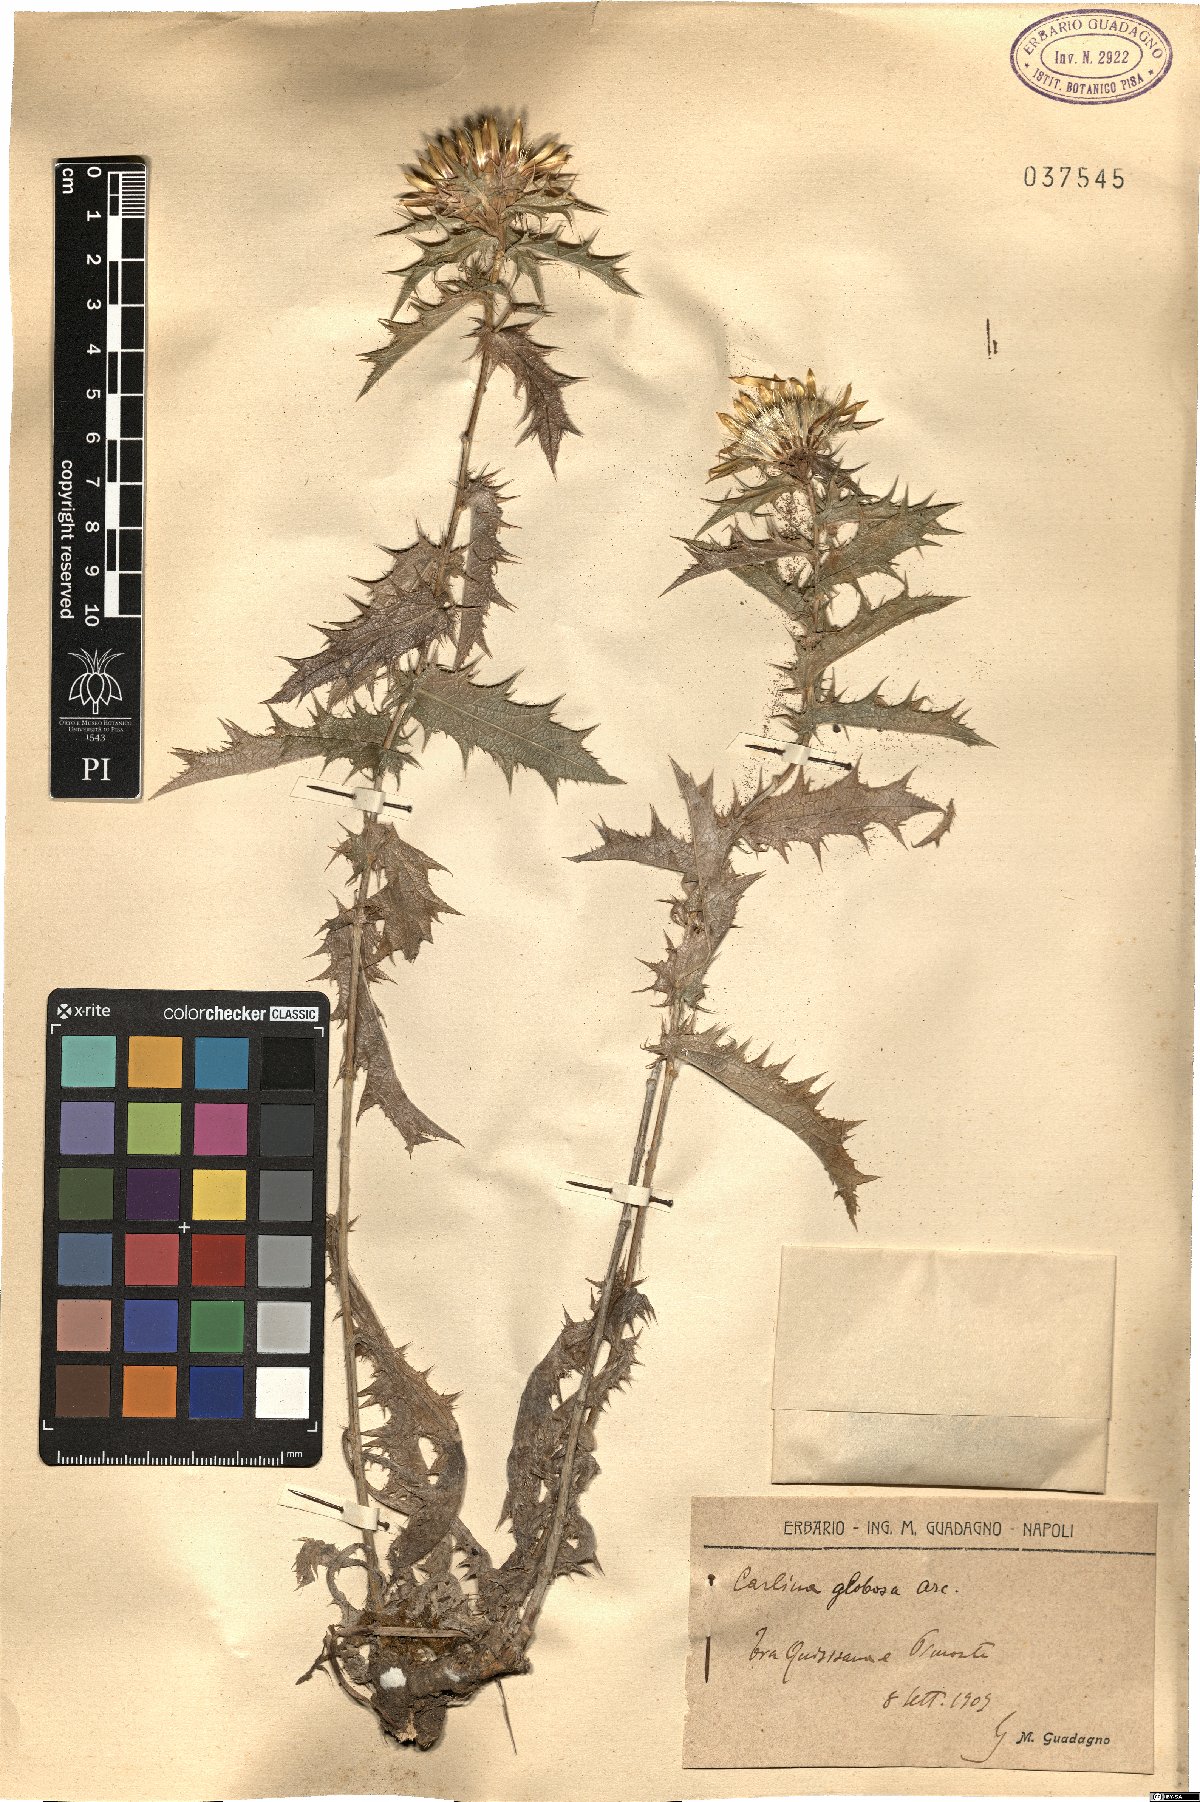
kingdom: Plantae
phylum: Tracheophyta
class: Magnoliopsida
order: Asterales
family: Asteraceae
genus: Carlina
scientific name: Carlina corymbosa
